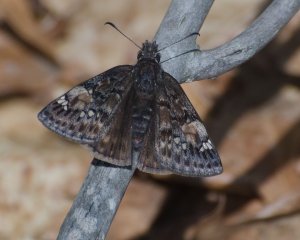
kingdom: Animalia
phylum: Arthropoda
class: Insecta
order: Lepidoptera
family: Hesperiidae
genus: Gesta
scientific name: Gesta
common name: Juvenal's Duskywing
